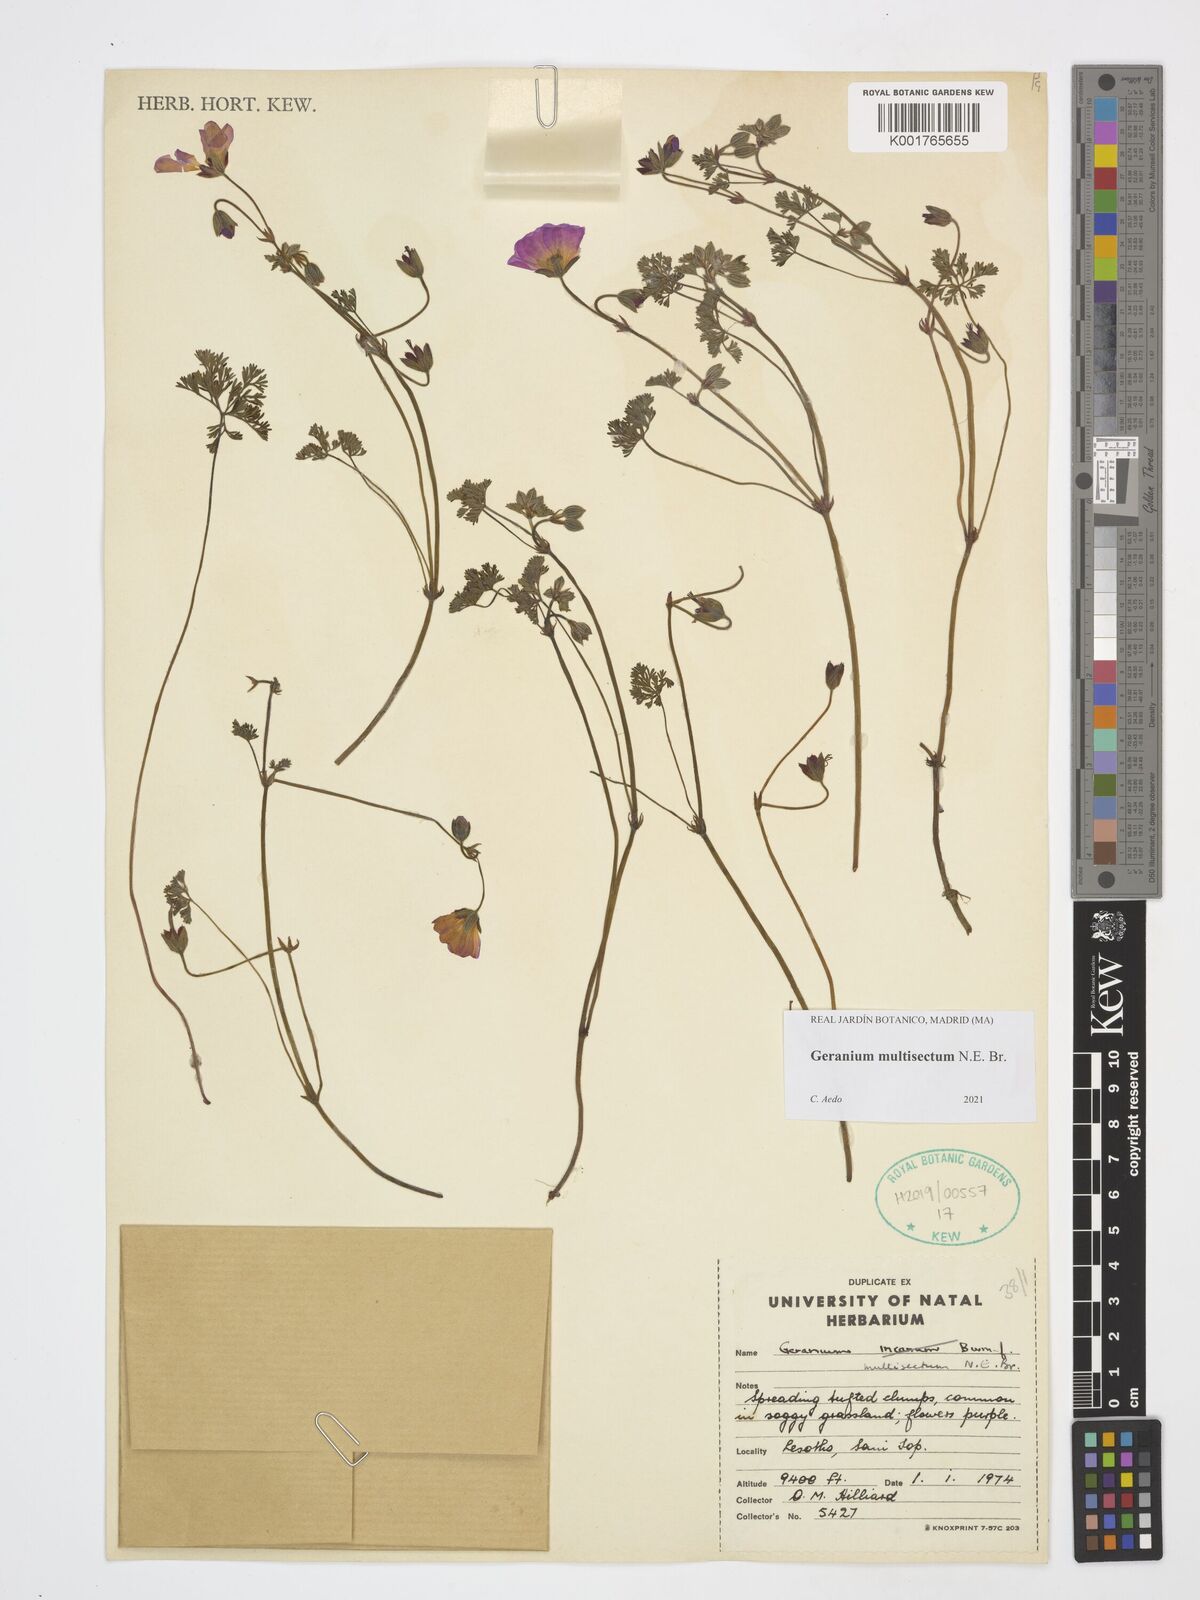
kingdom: Plantae
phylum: Tracheophyta
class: Magnoliopsida
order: Geraniales
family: Geraniaceae
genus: Geranium
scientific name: Geranium multisectum
